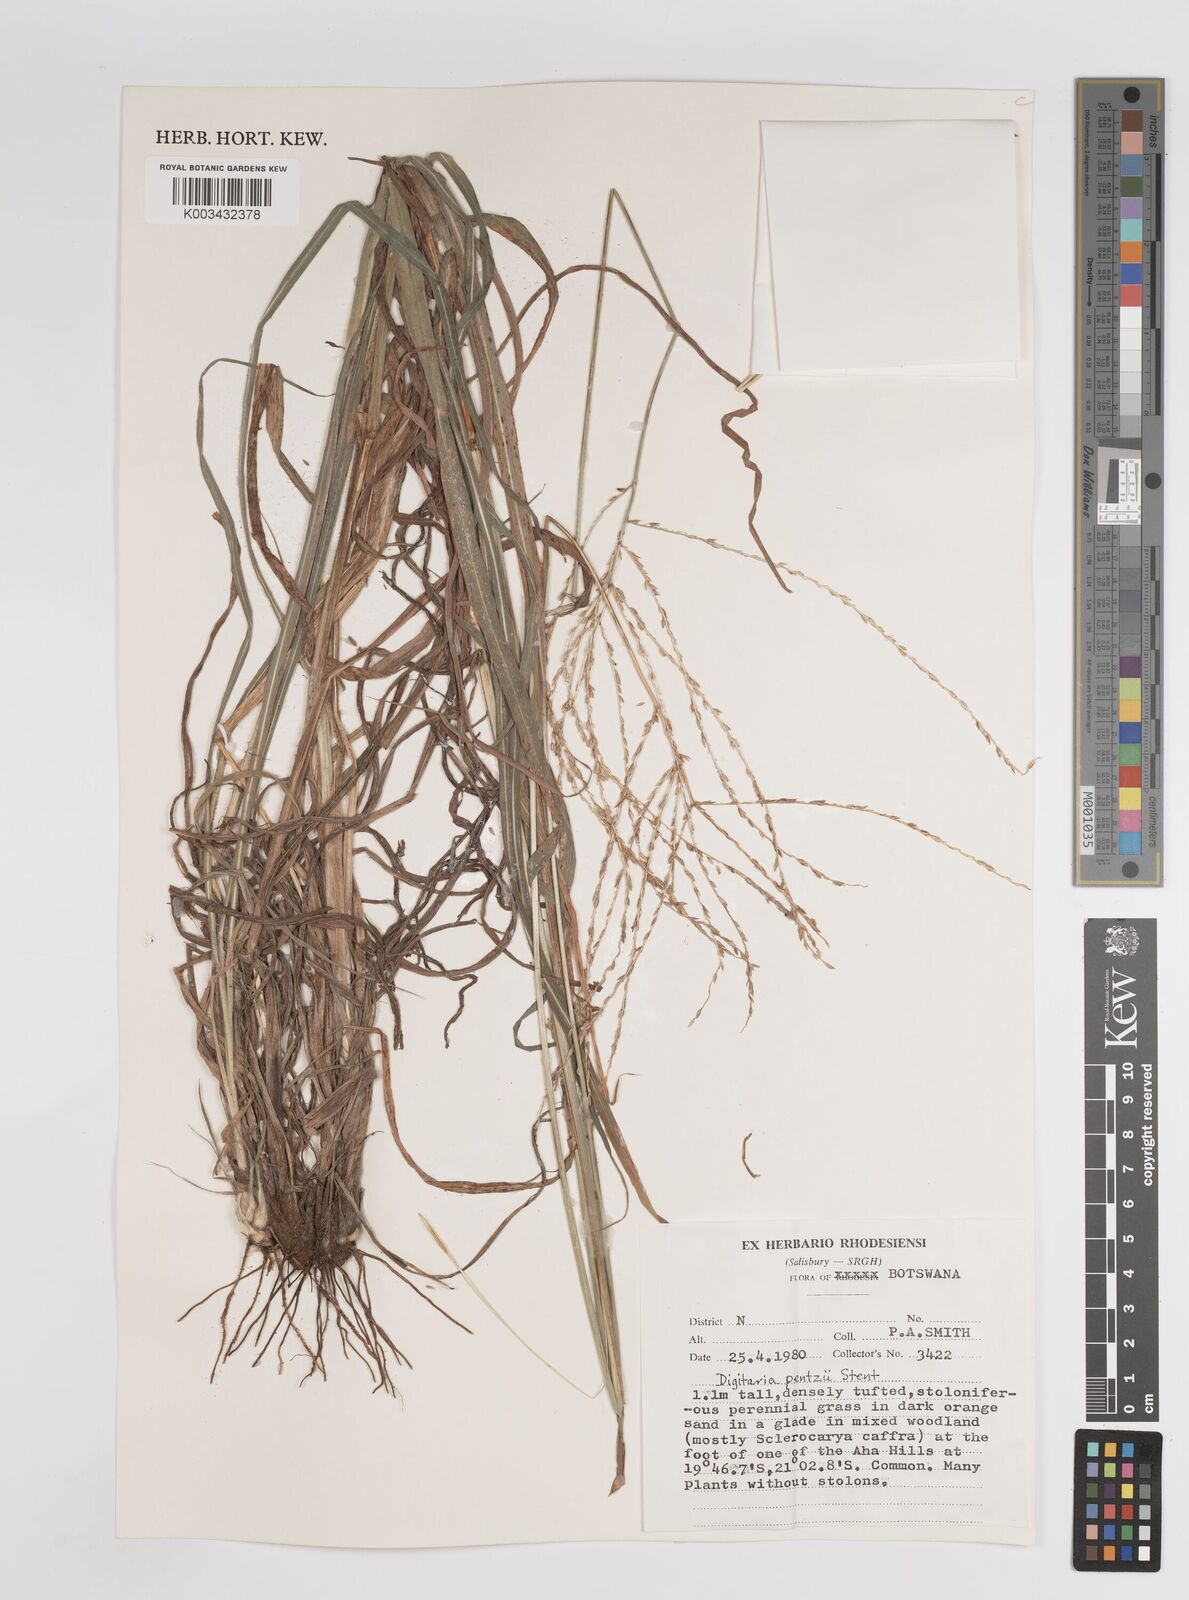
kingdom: Plantae
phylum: Tracheophyta
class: Liliopsida
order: Poales
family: Poaceae
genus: Digitaria
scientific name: Digitaria eriantha
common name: Digitgrass
